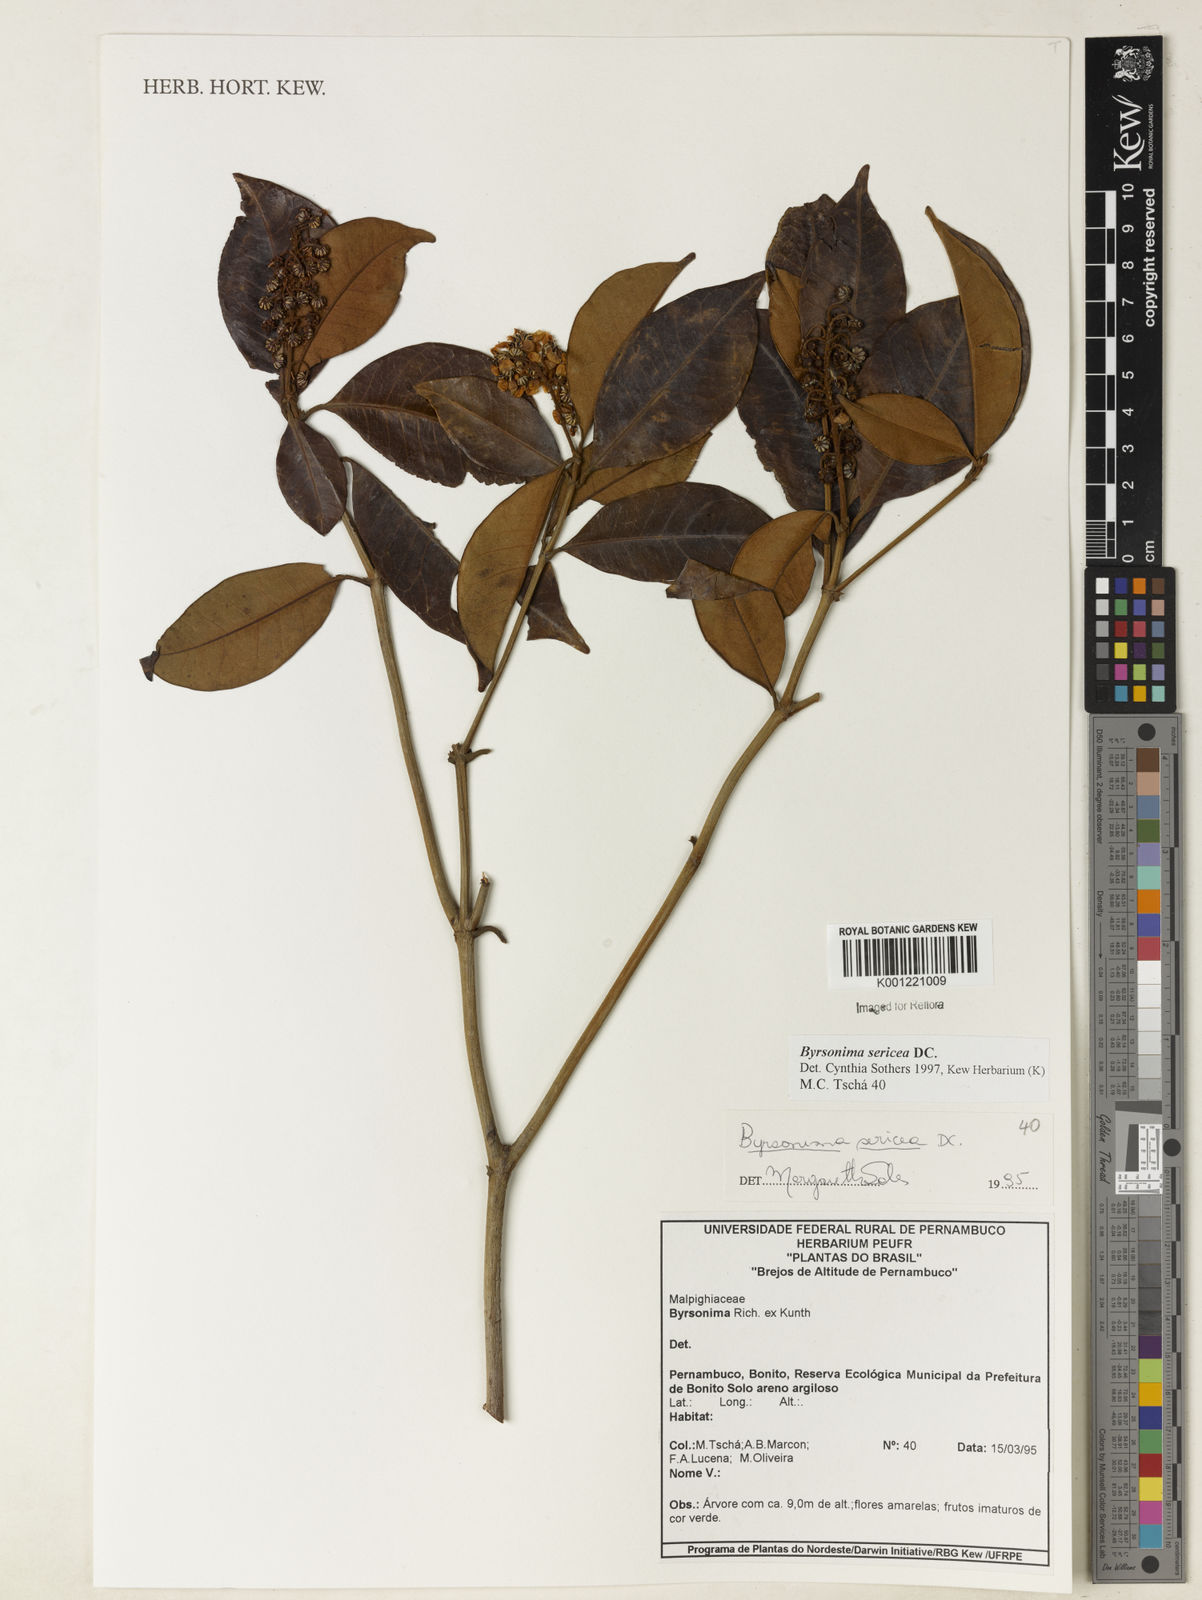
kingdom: Plantae
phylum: Tracheophyta
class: Magnoliopsida
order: Malpighiales
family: Malpighiaceae
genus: Byrsonima
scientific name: Byrsonima sericea
